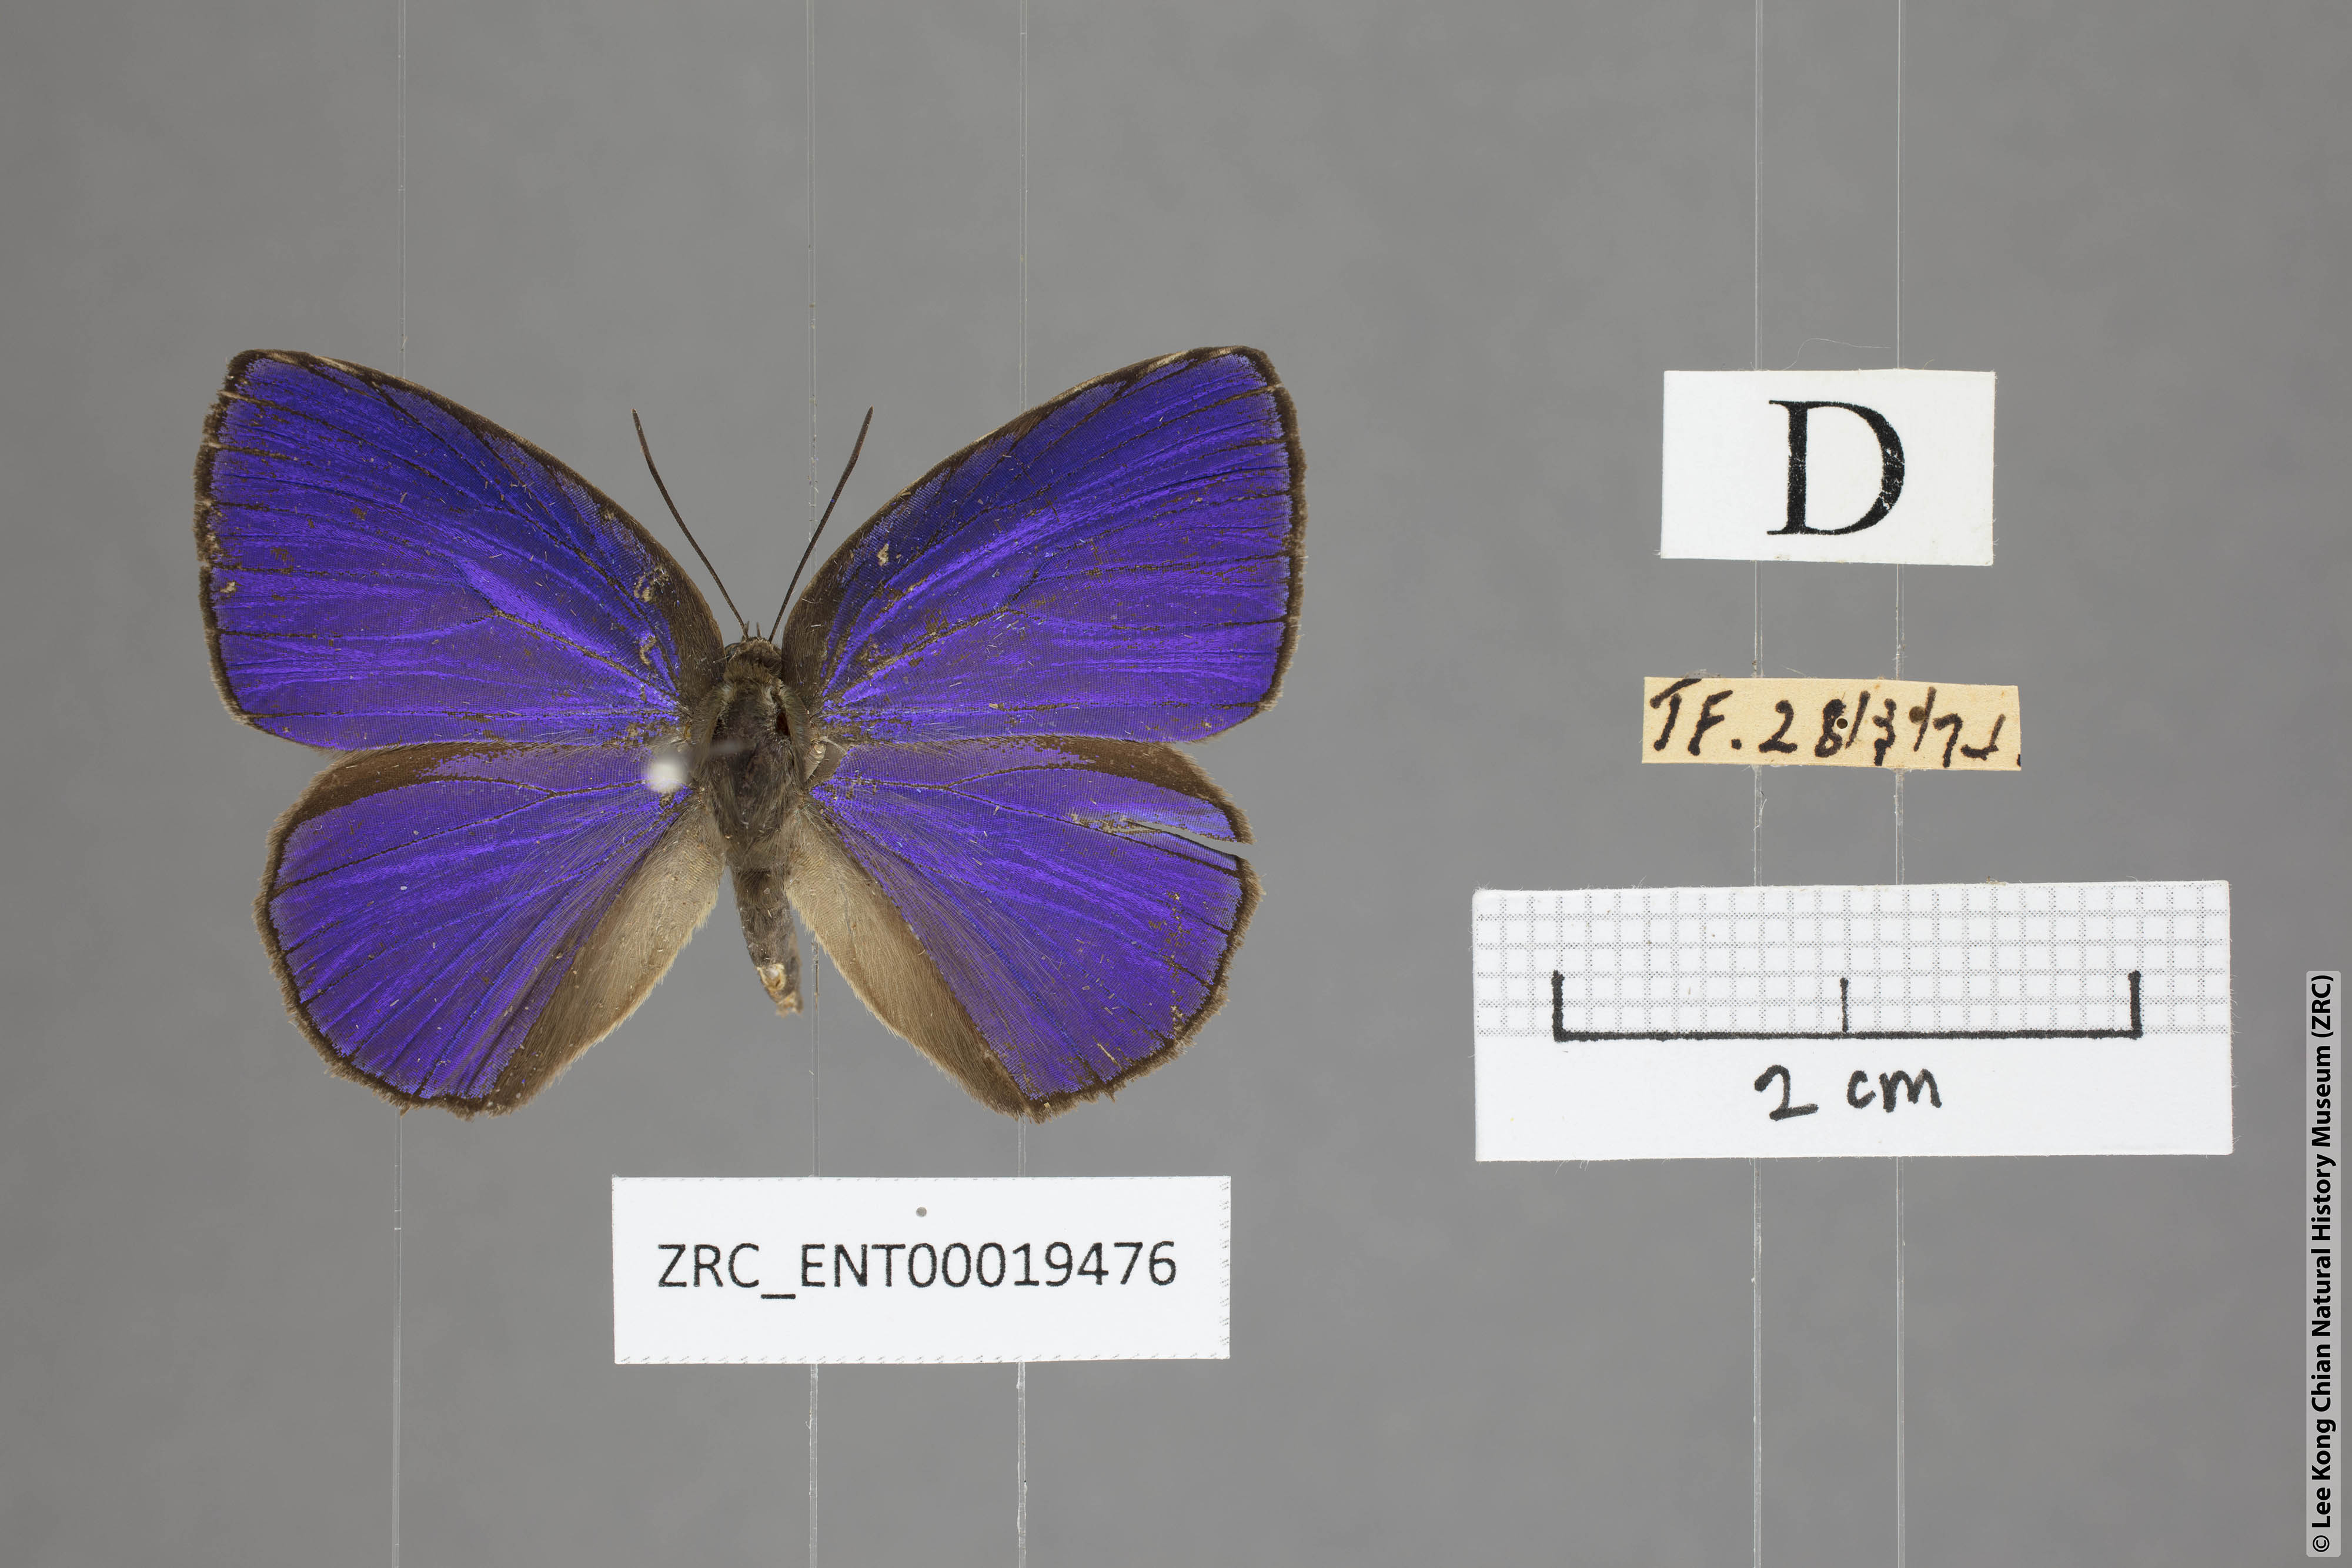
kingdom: Animalia
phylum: Arthropoda
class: Insecta
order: Lepidoptera
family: Lycaenidae
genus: Arhopala
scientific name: Arhopala fulla
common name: Spotless oakblue
